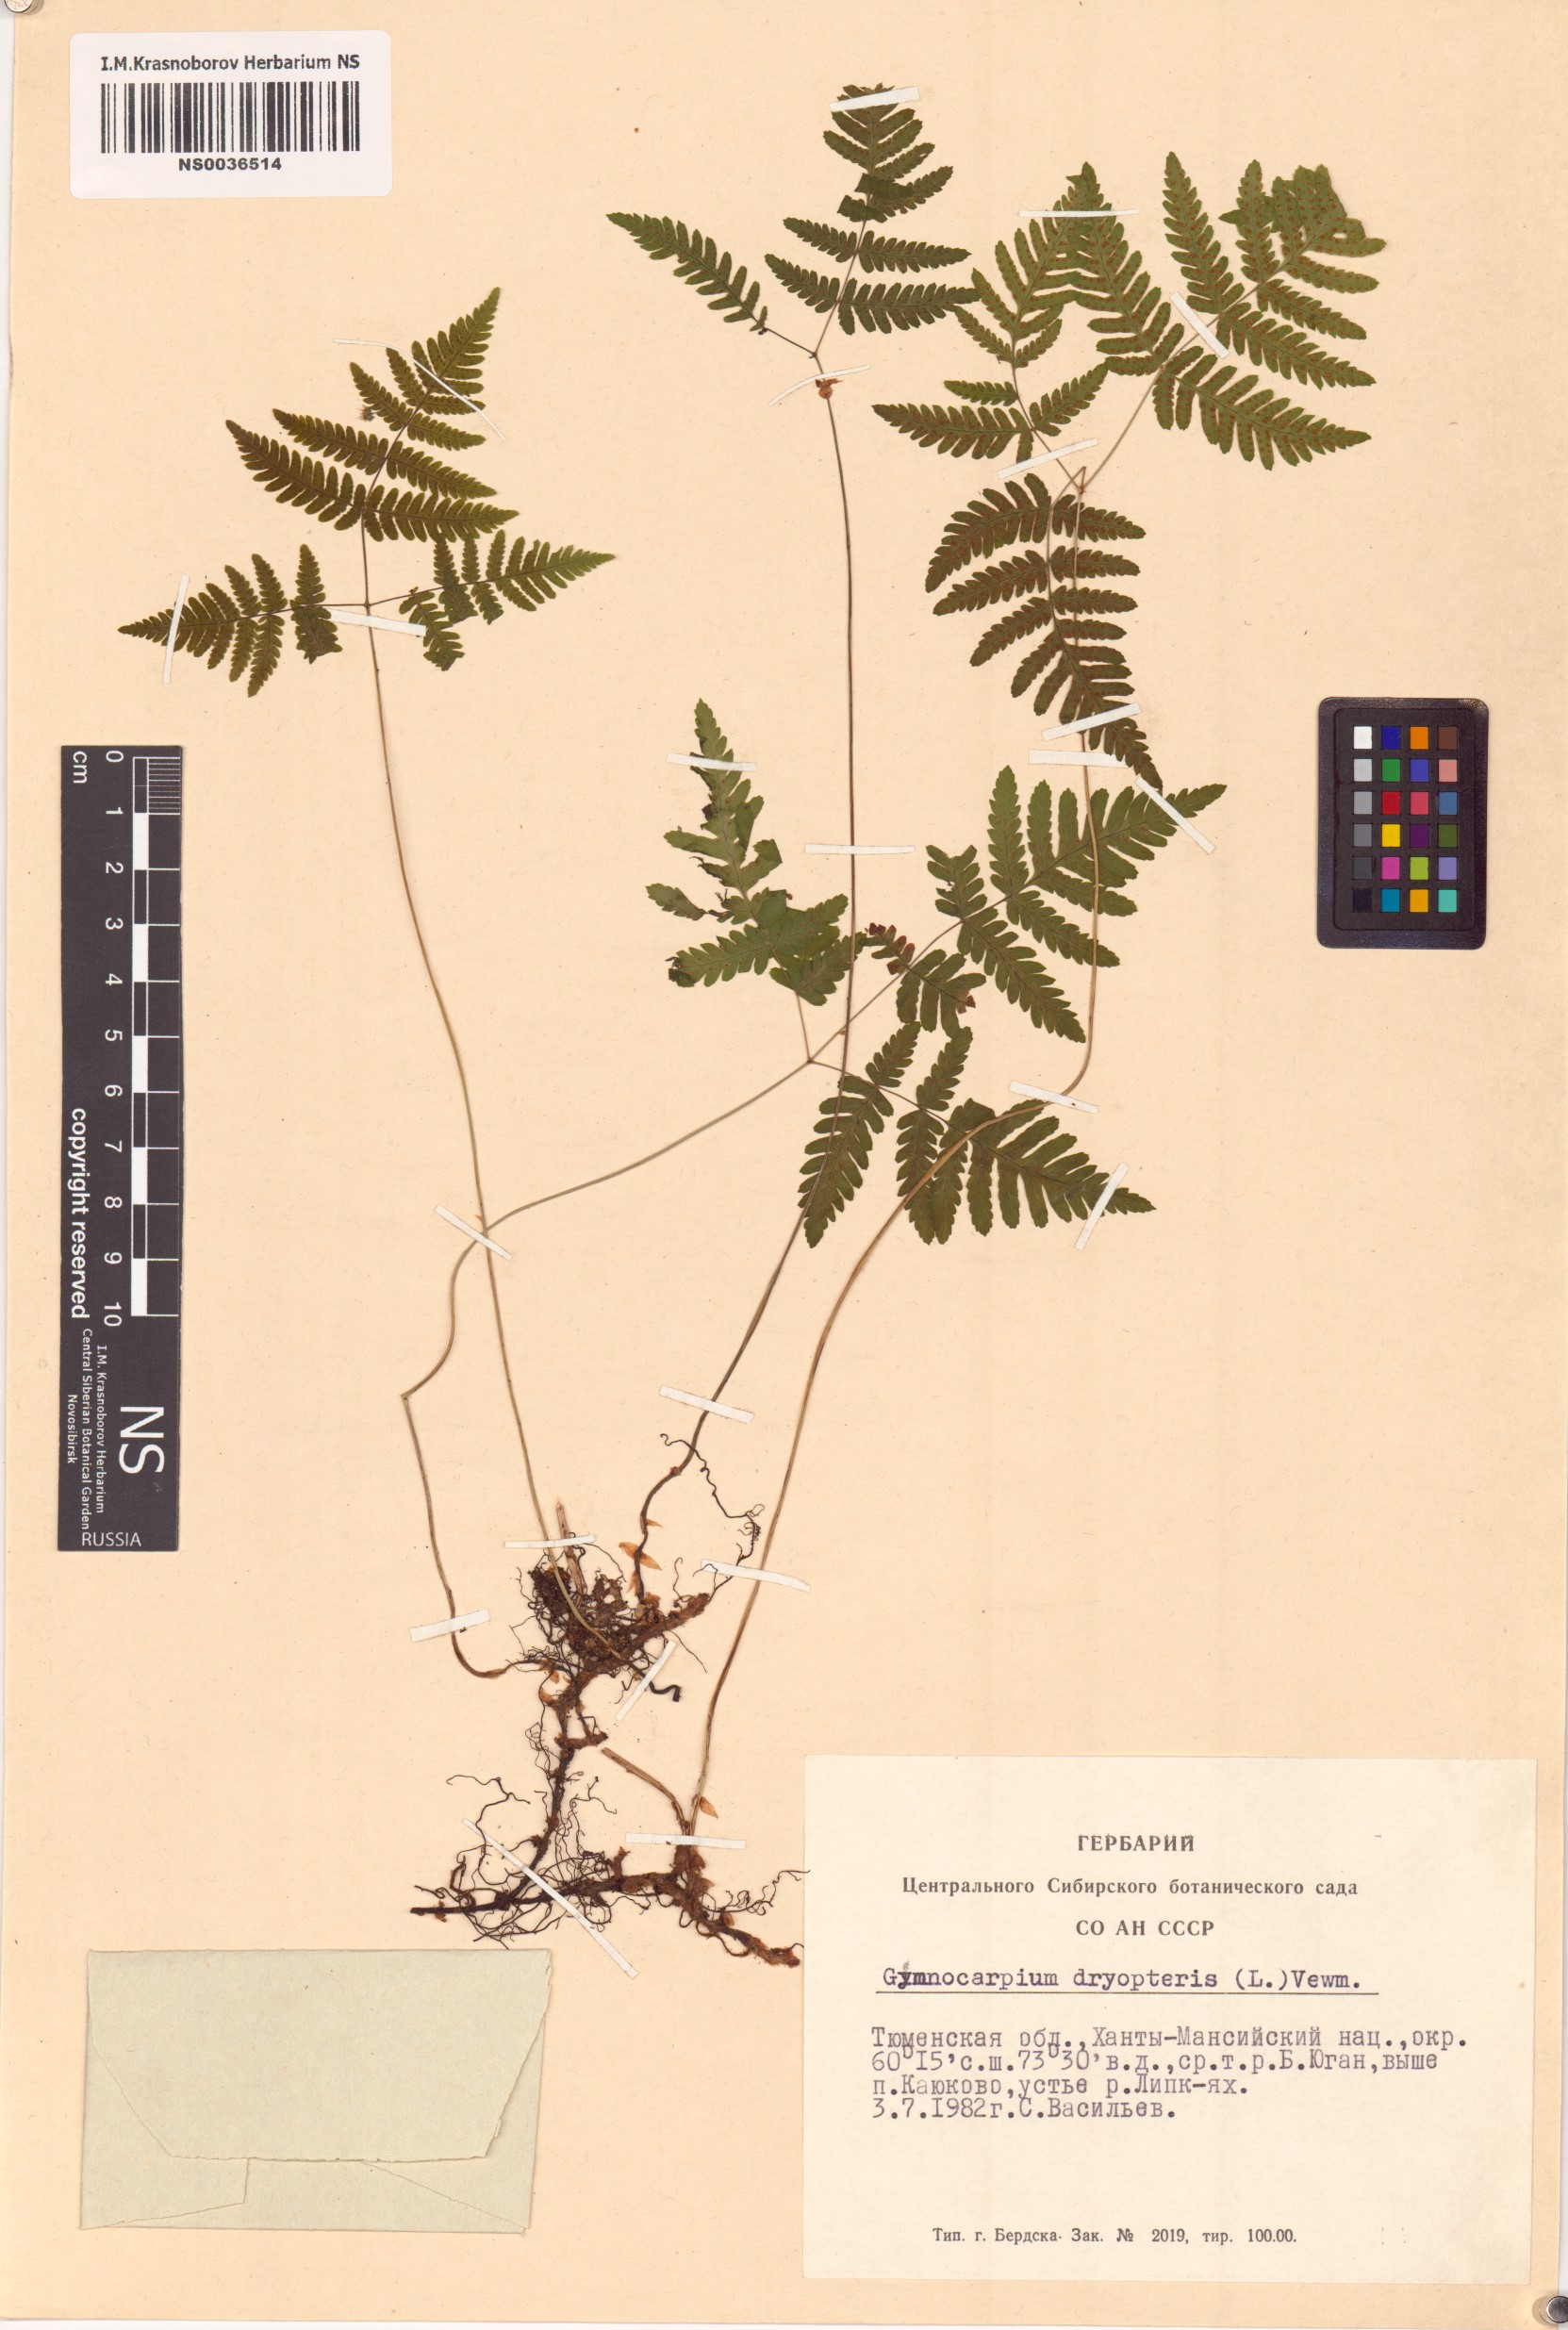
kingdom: Plantae
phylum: Tracheophyta
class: Polypodiopsida
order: Polypodiales
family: Cystopteridaceae
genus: Gymnocarpium
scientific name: Gymnocarpium dryopteris
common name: Oak fern
